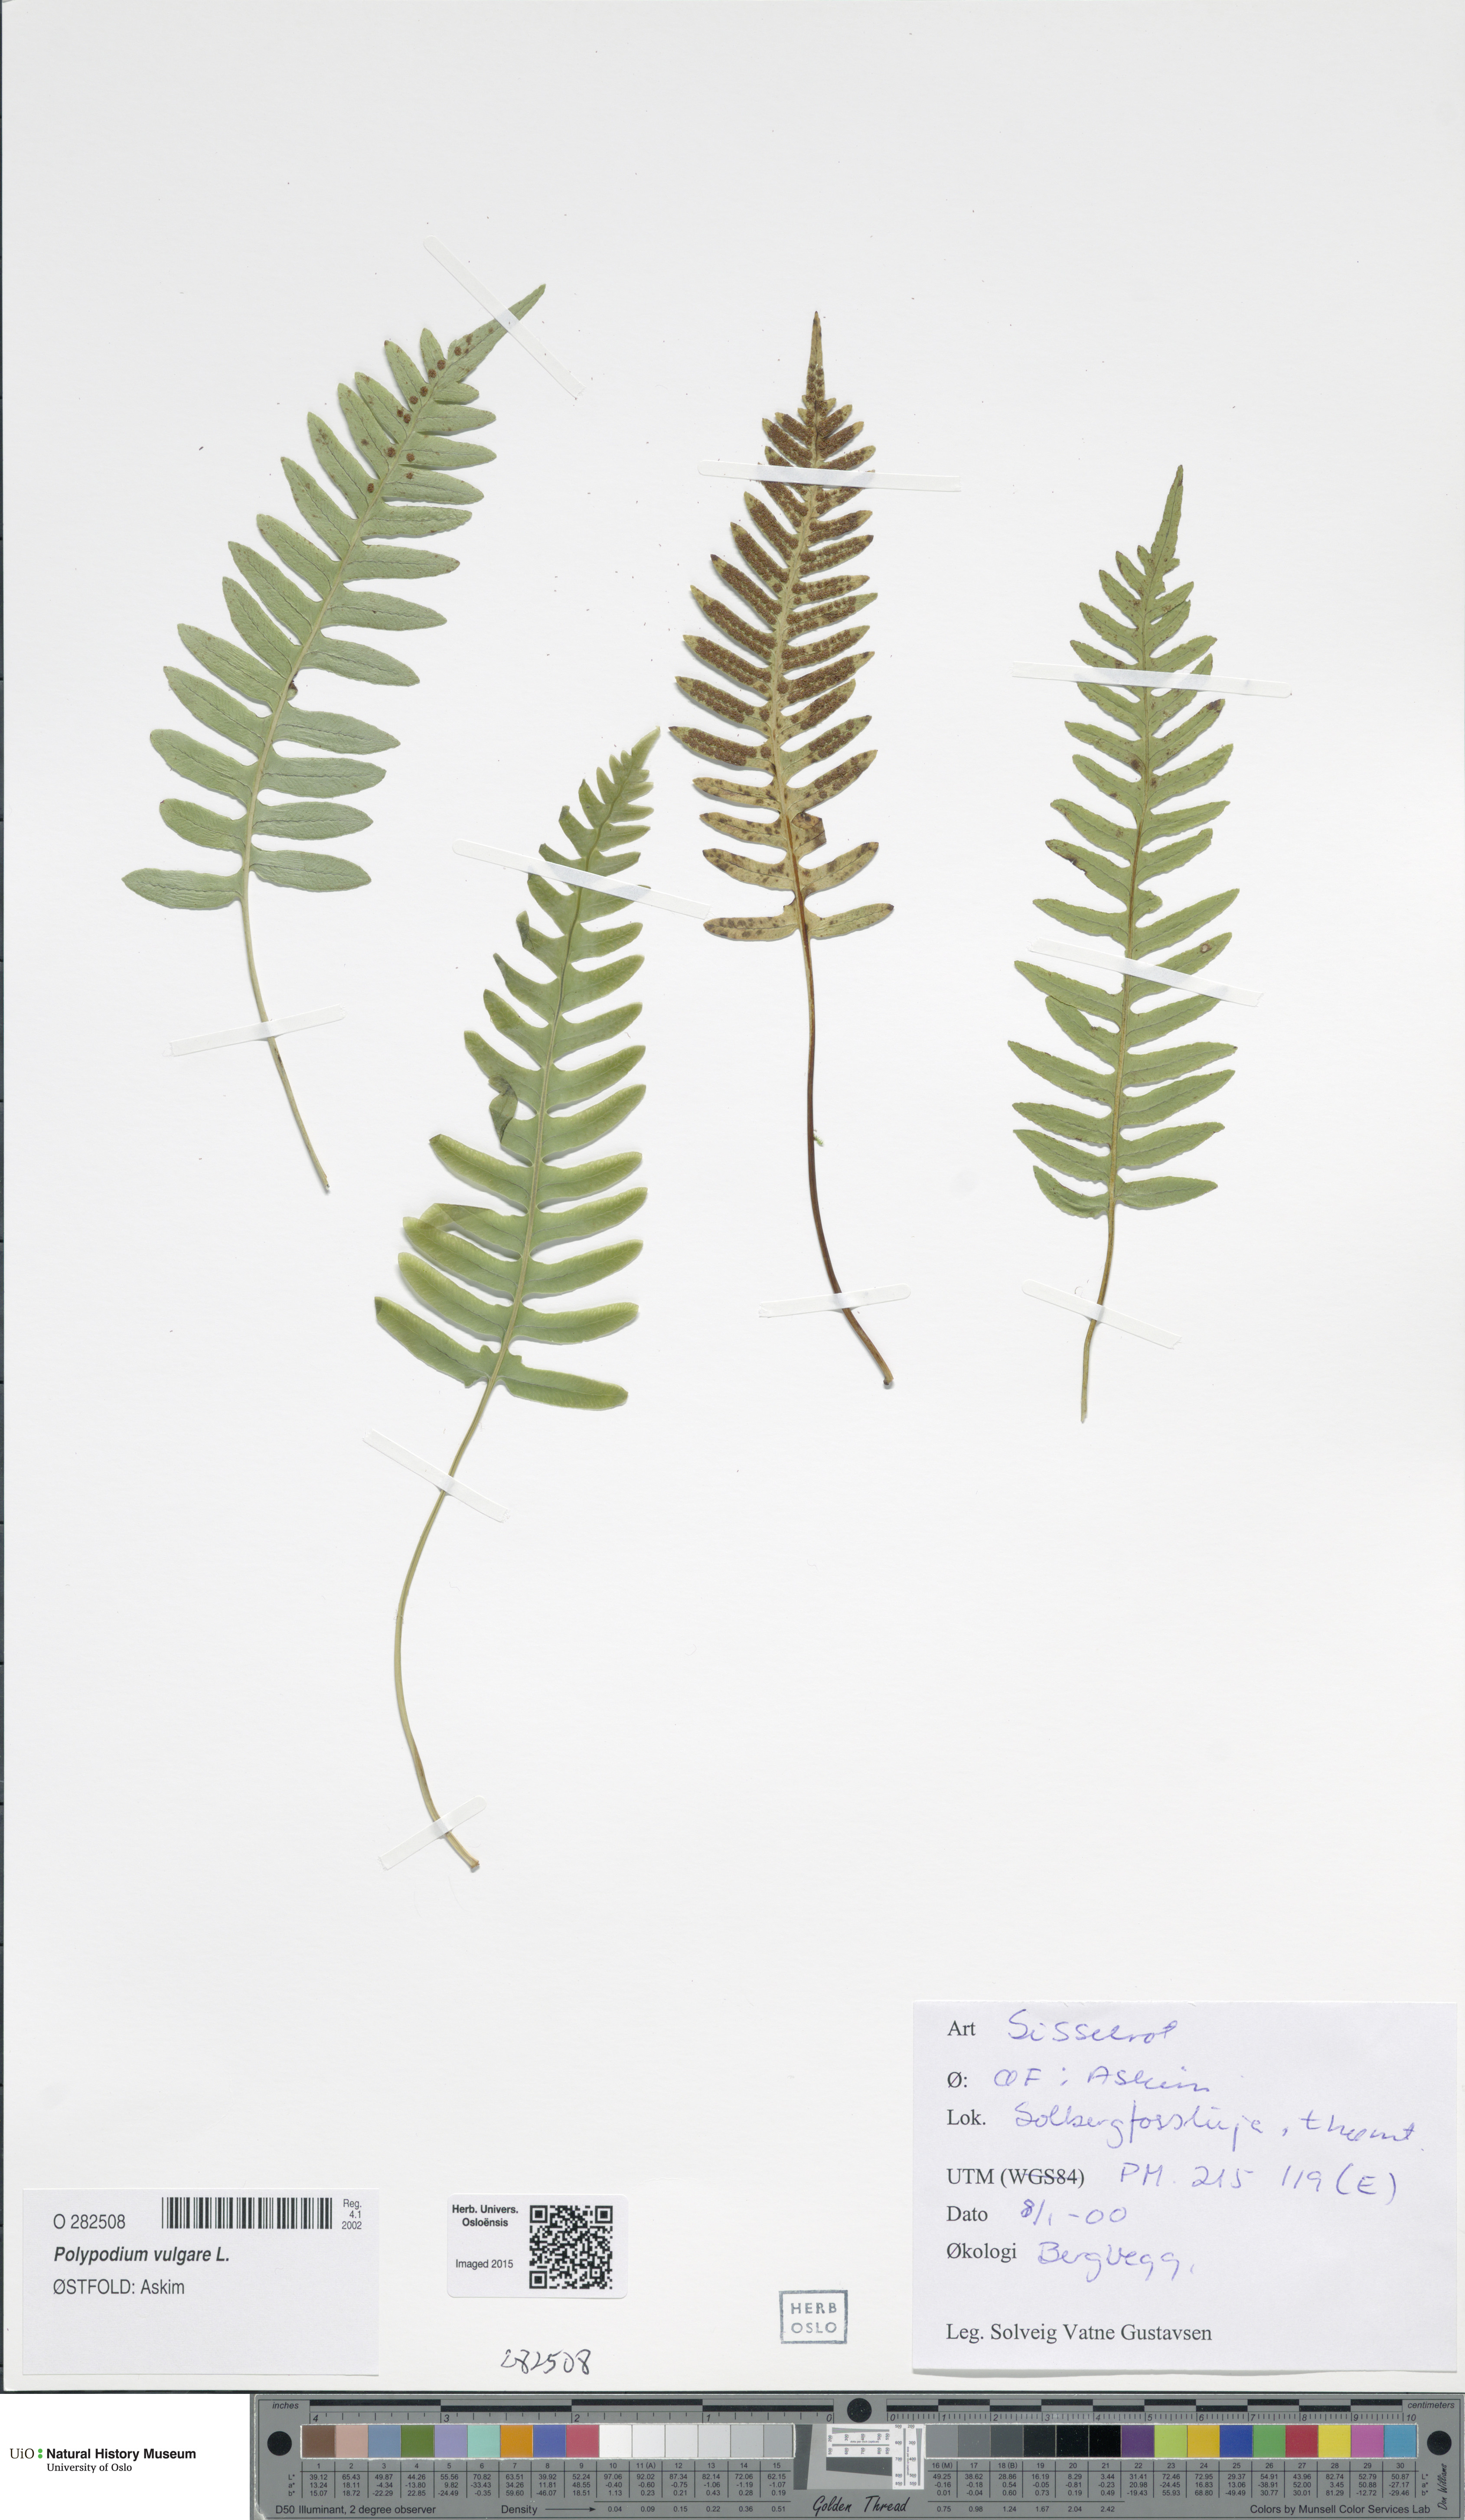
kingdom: Plantae
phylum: Tracheophyta
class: Polypodiopsida
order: Polypodiales
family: Polypodiaceae
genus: Polypodium
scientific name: Polypodium vulgare
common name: Common polypody
